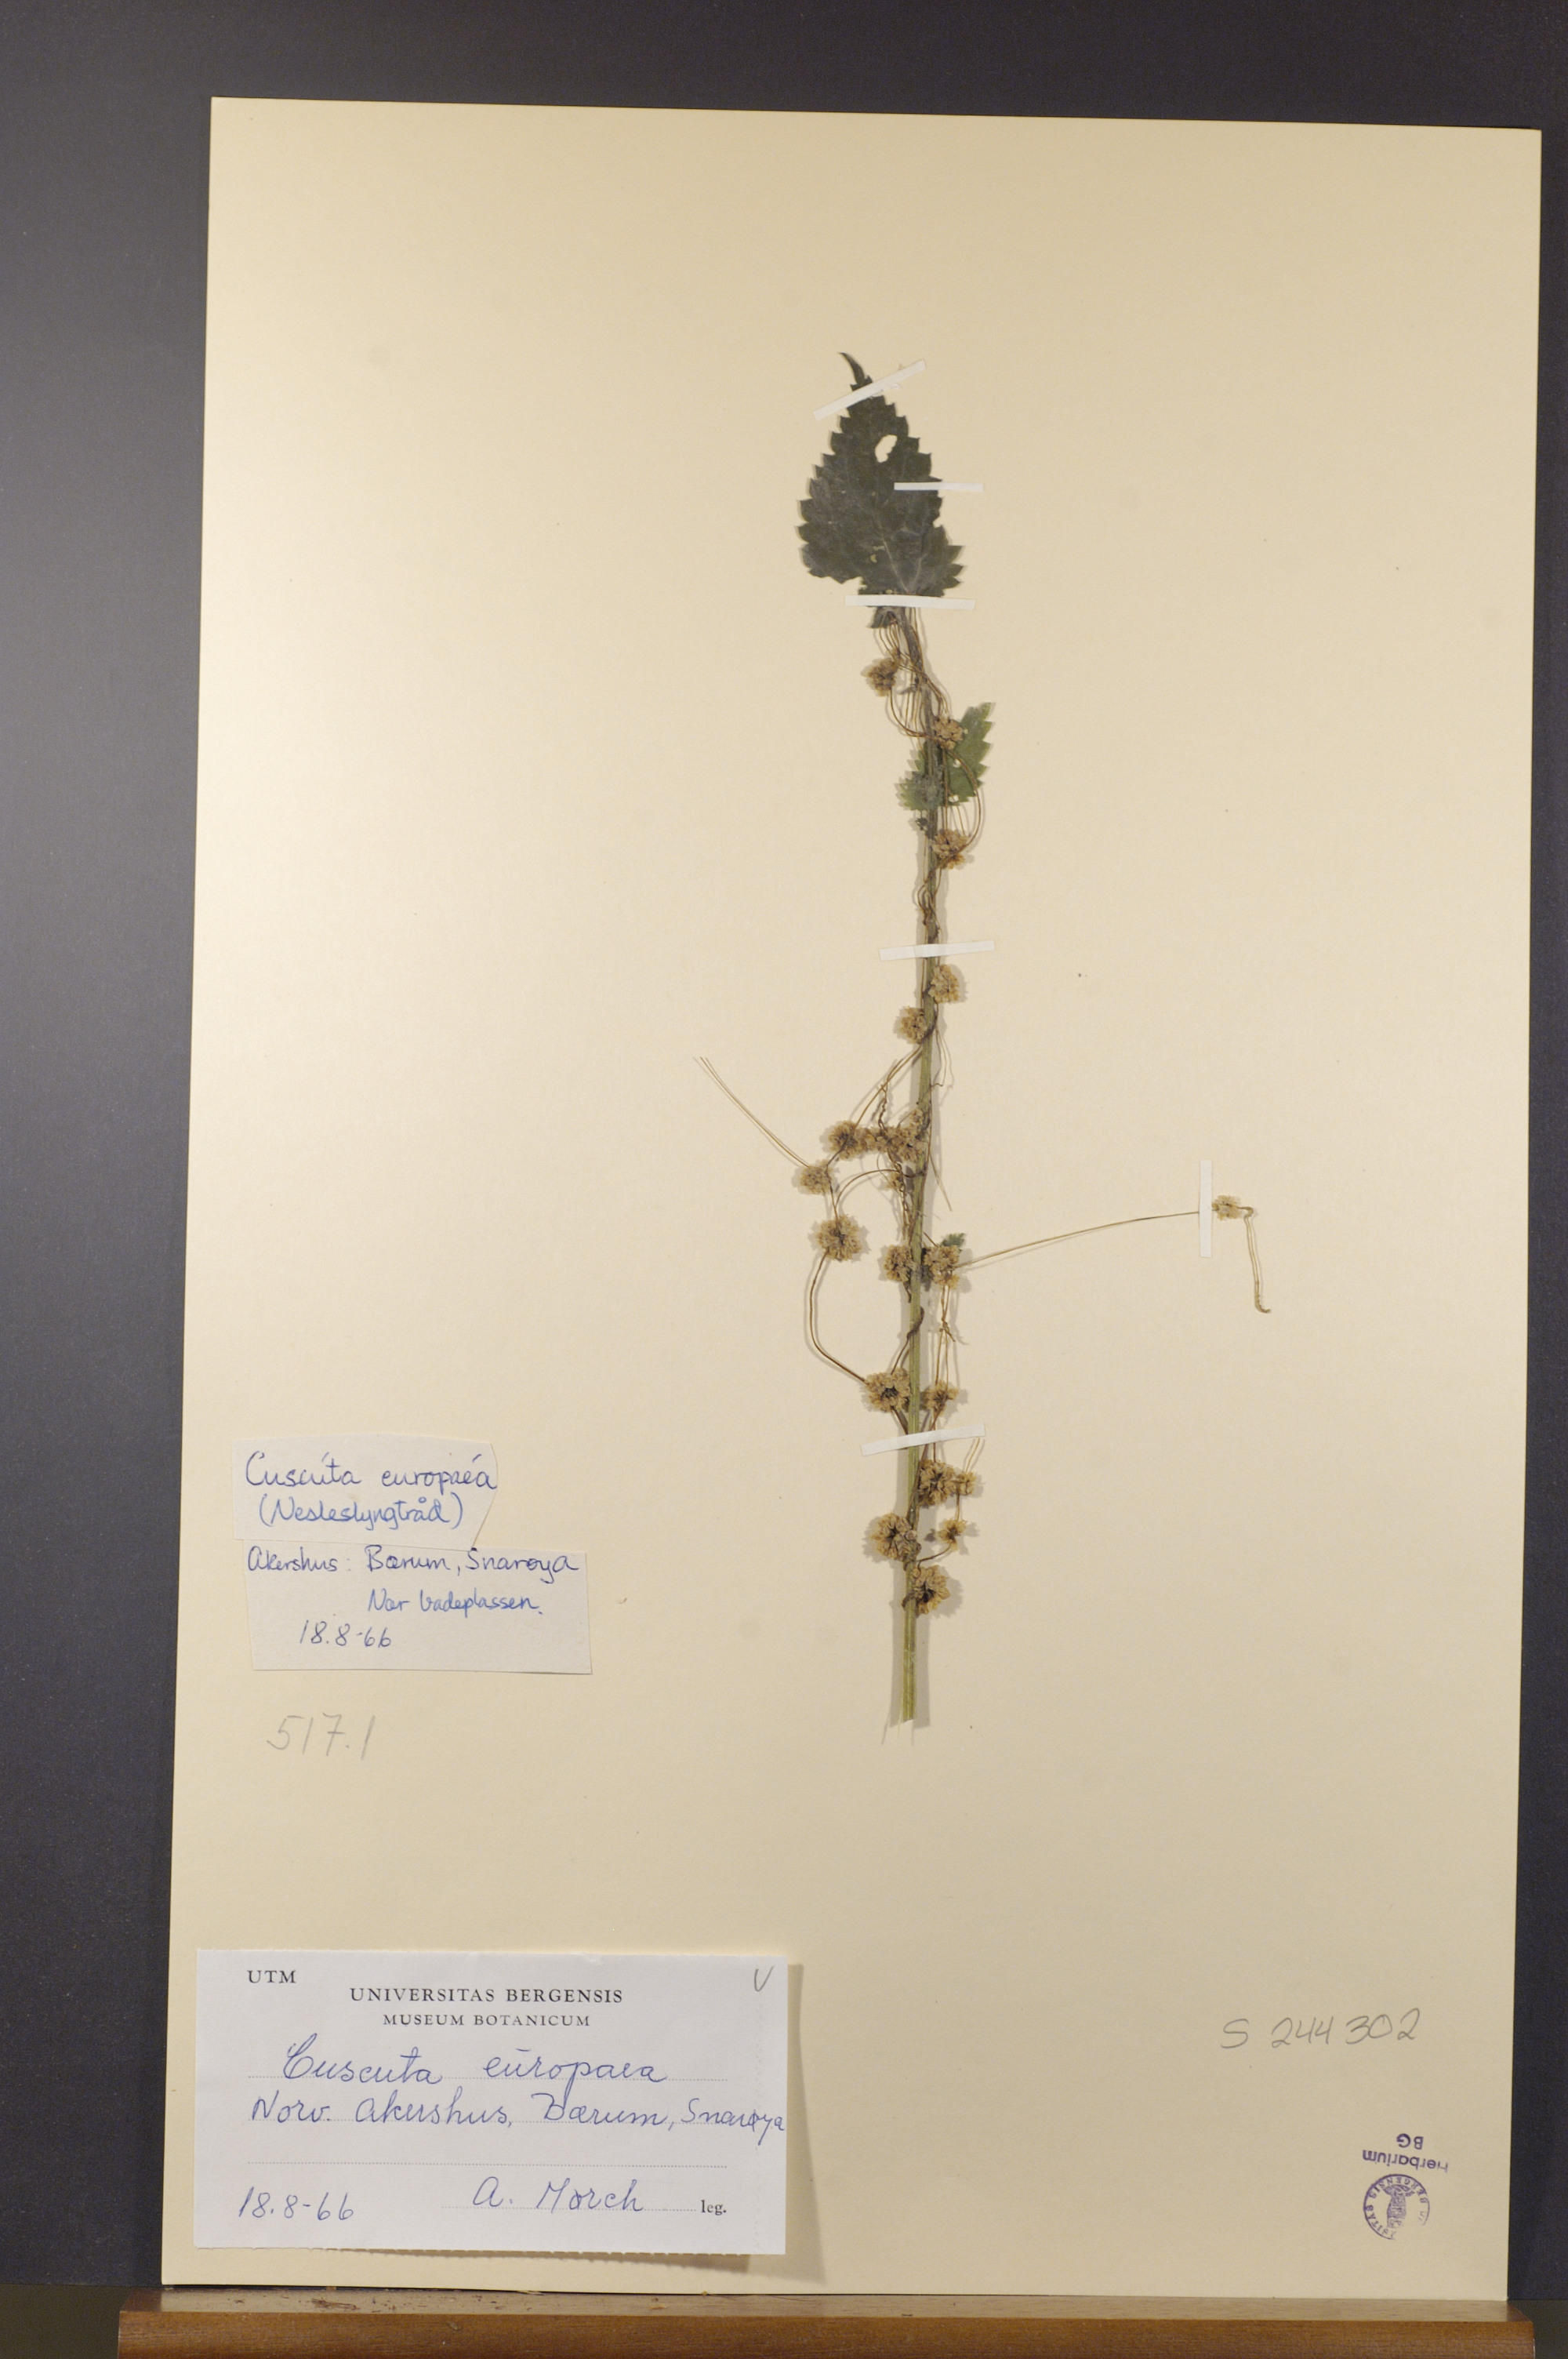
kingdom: Plantae
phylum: Tracheophyta
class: Magnoliopsida
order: Solanales
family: Convolvulaceae
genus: Cuscuta
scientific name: Cuscuta europaea
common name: Greater dodder
